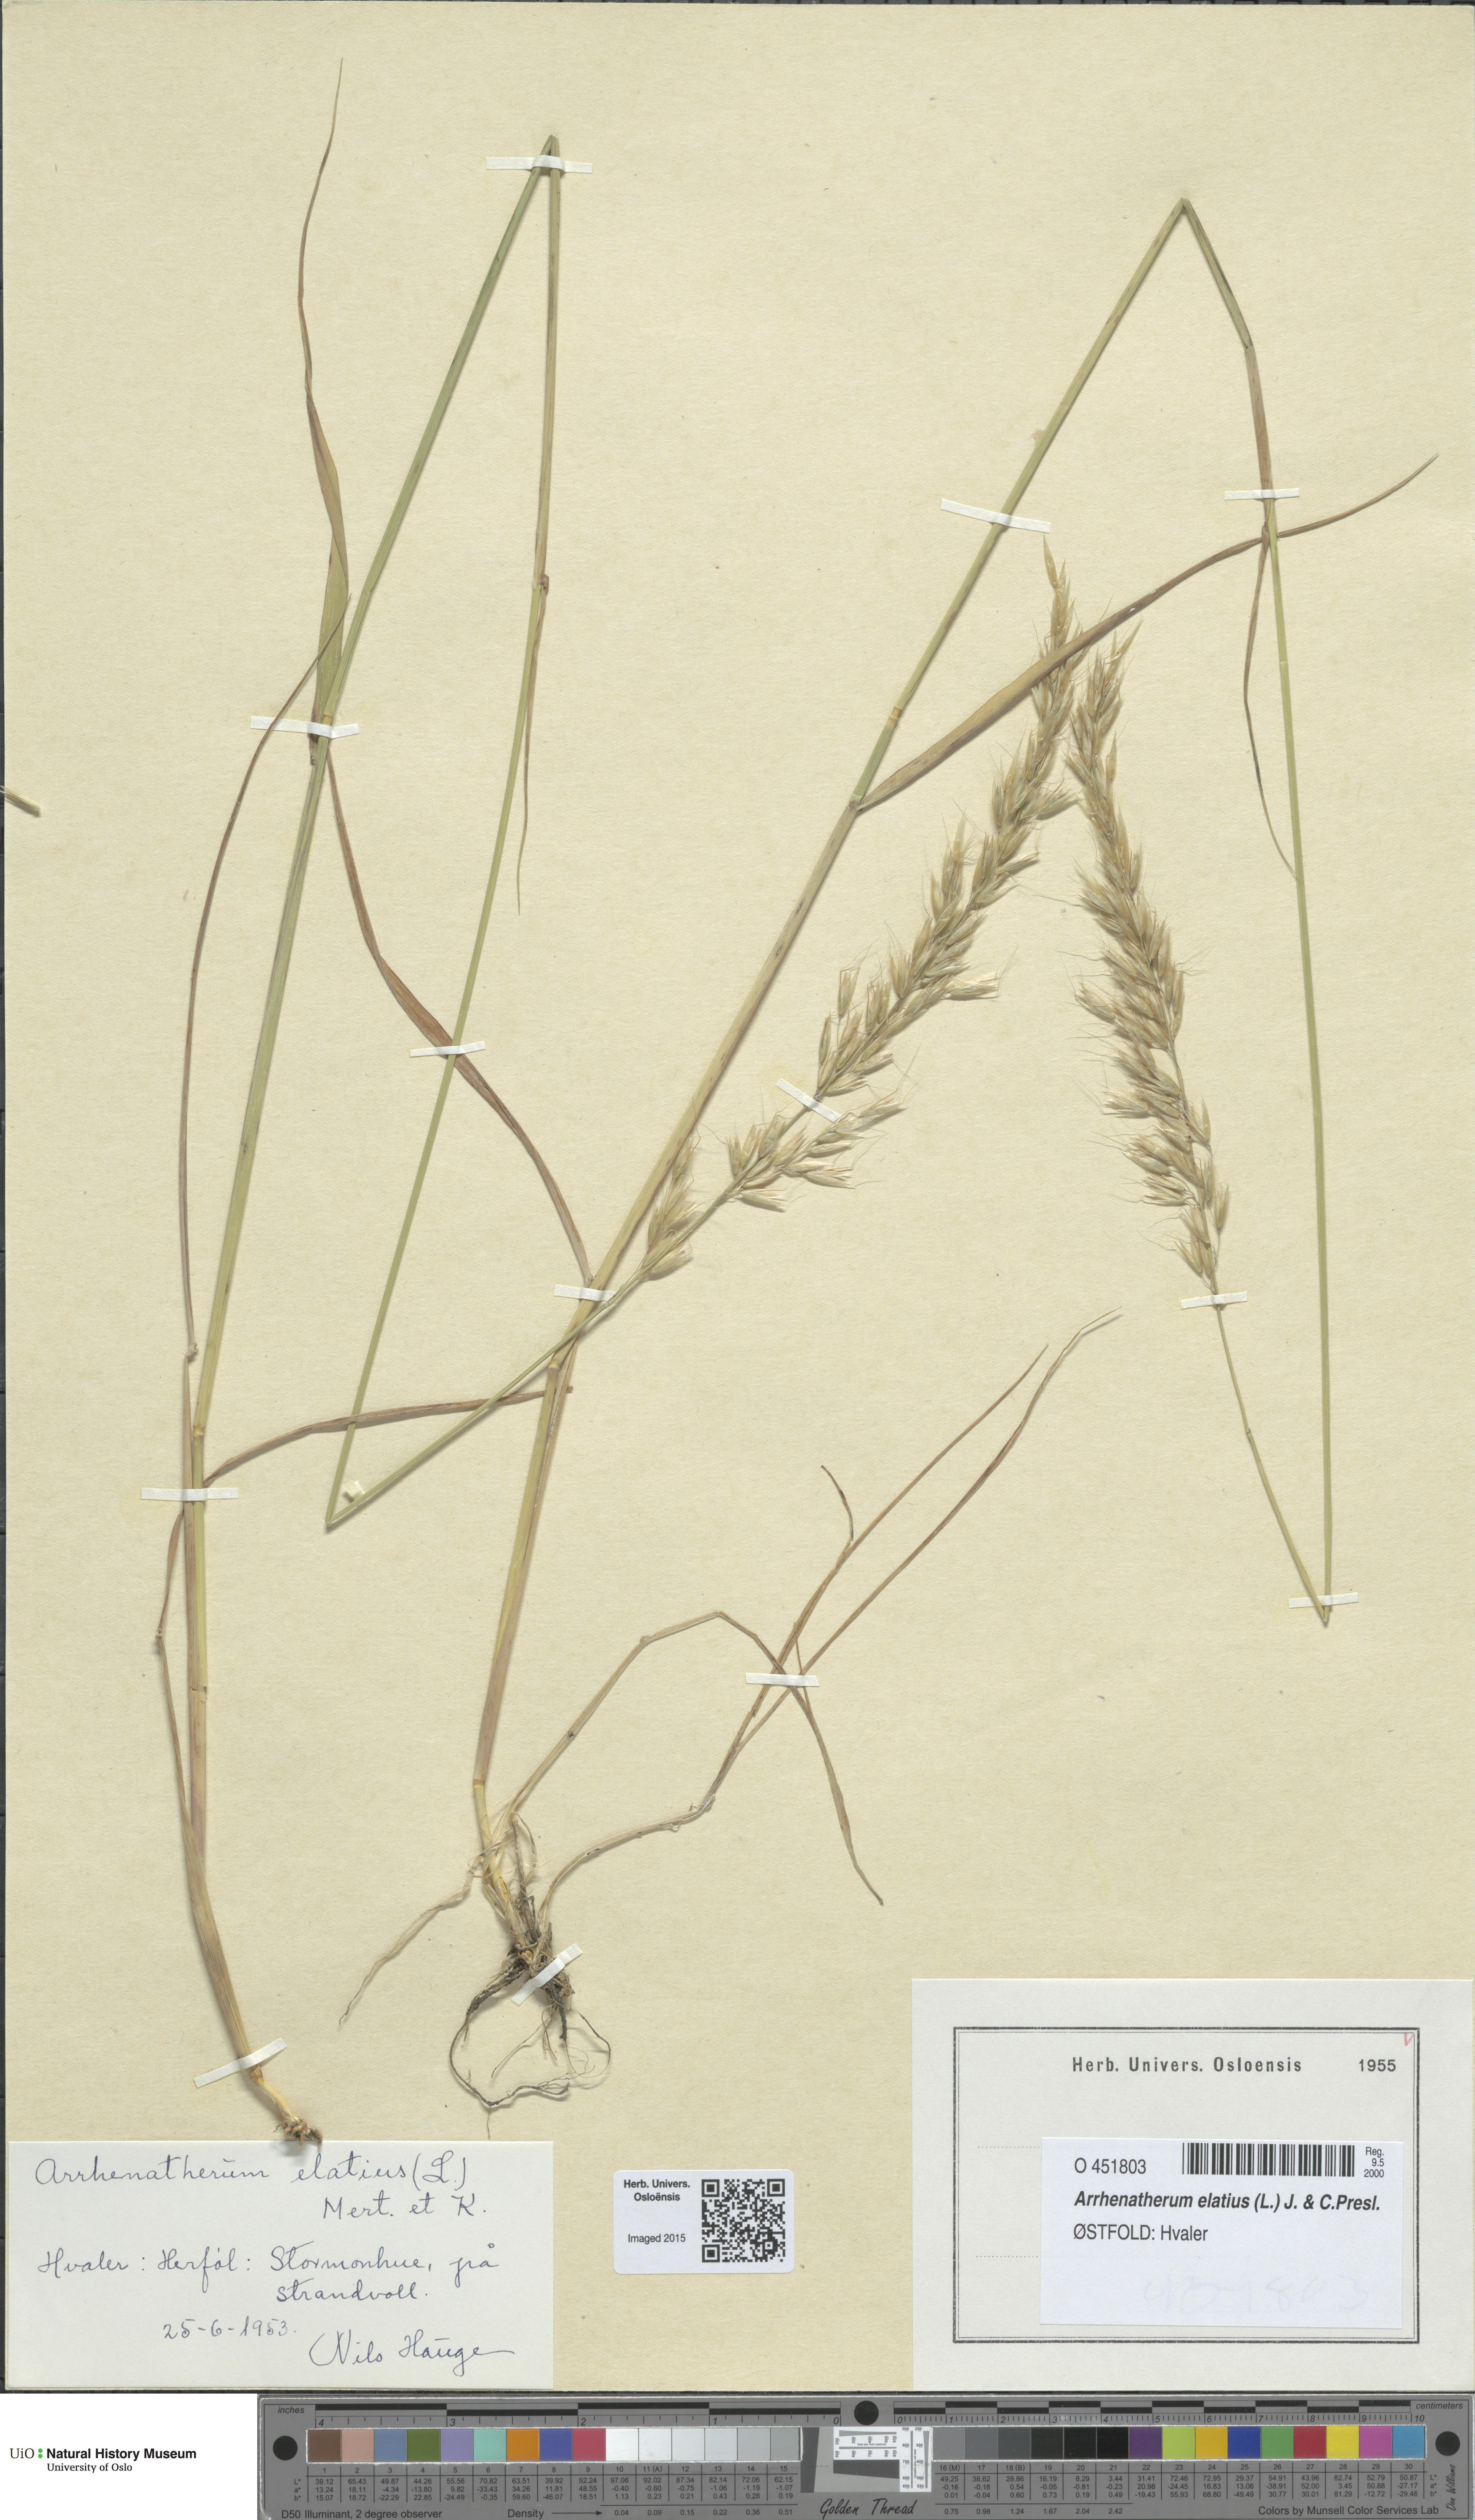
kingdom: Plantae
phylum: Tracheophyta
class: Liliopsida
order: Poales
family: Poaceae
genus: Arrhenatherum
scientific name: Arrhenatherum elatius
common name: Tall oatgrass
